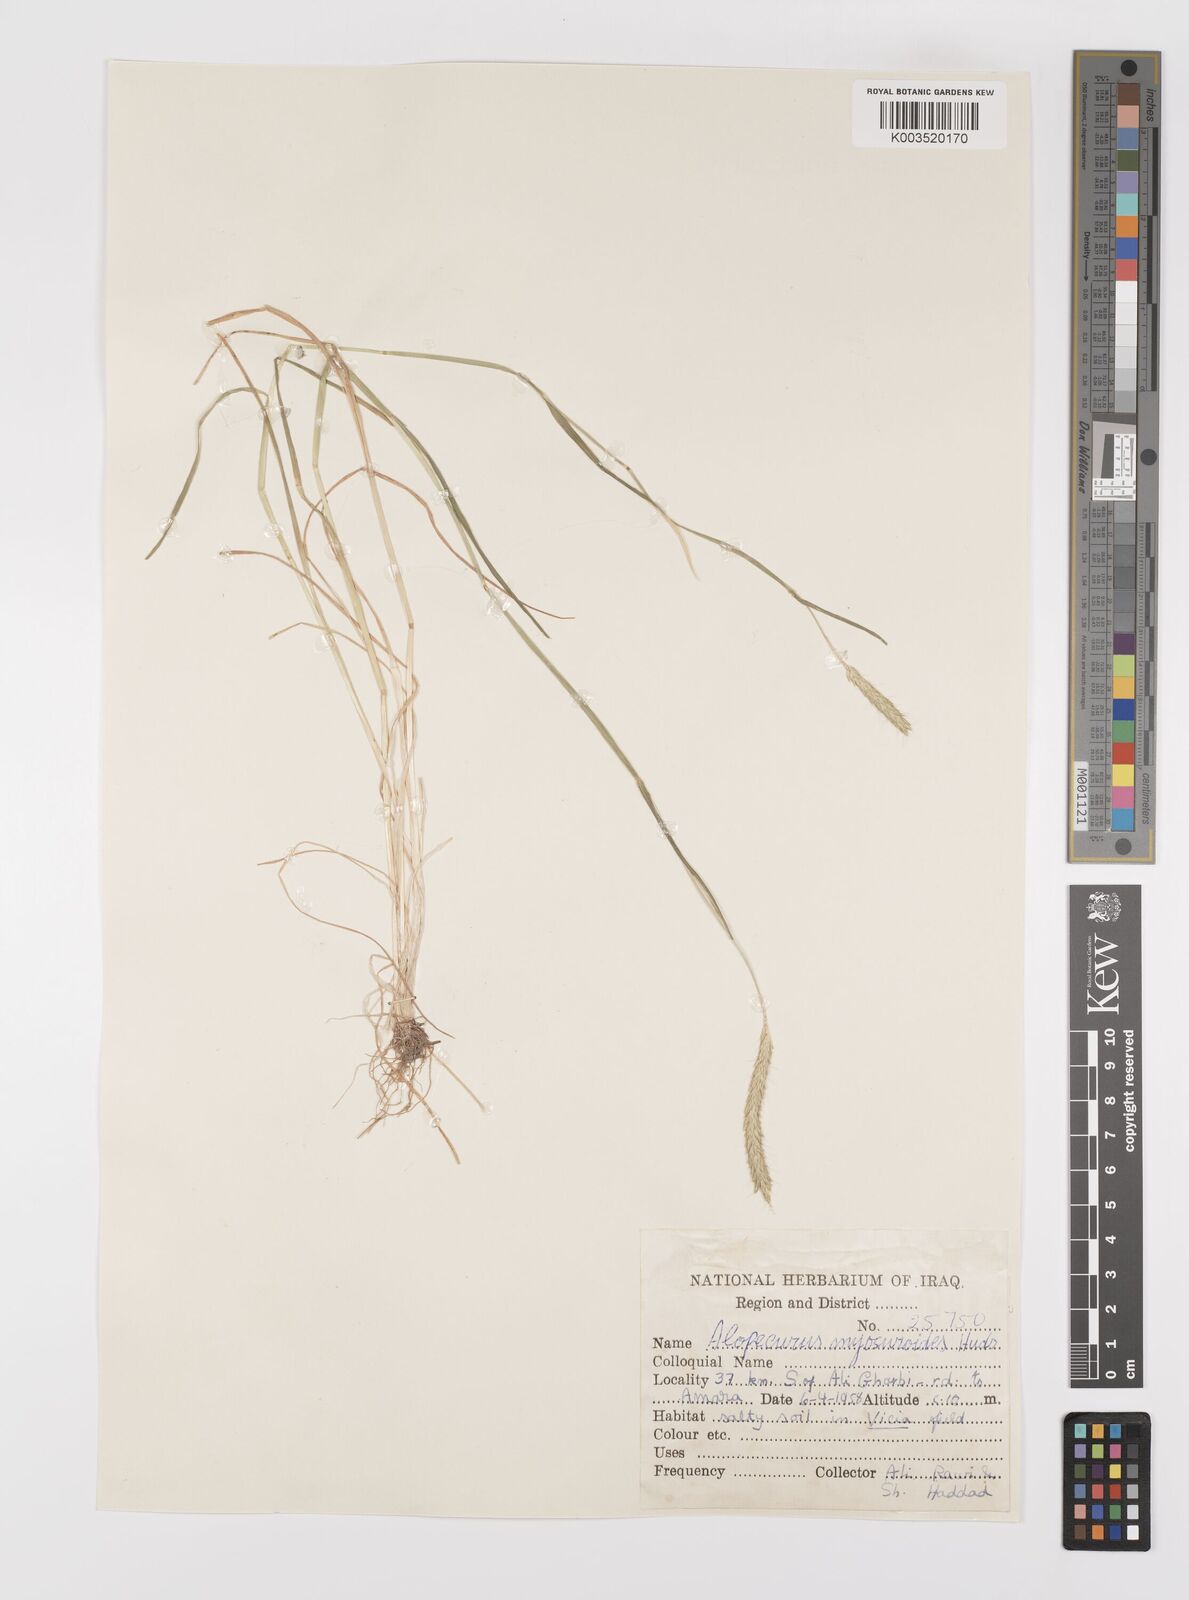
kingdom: Plantae
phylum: Tracheophyta
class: Liliopsida
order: Poales
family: Poaceae
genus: Alopecurus
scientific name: Alopecurus myosuroides
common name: Black-grass
